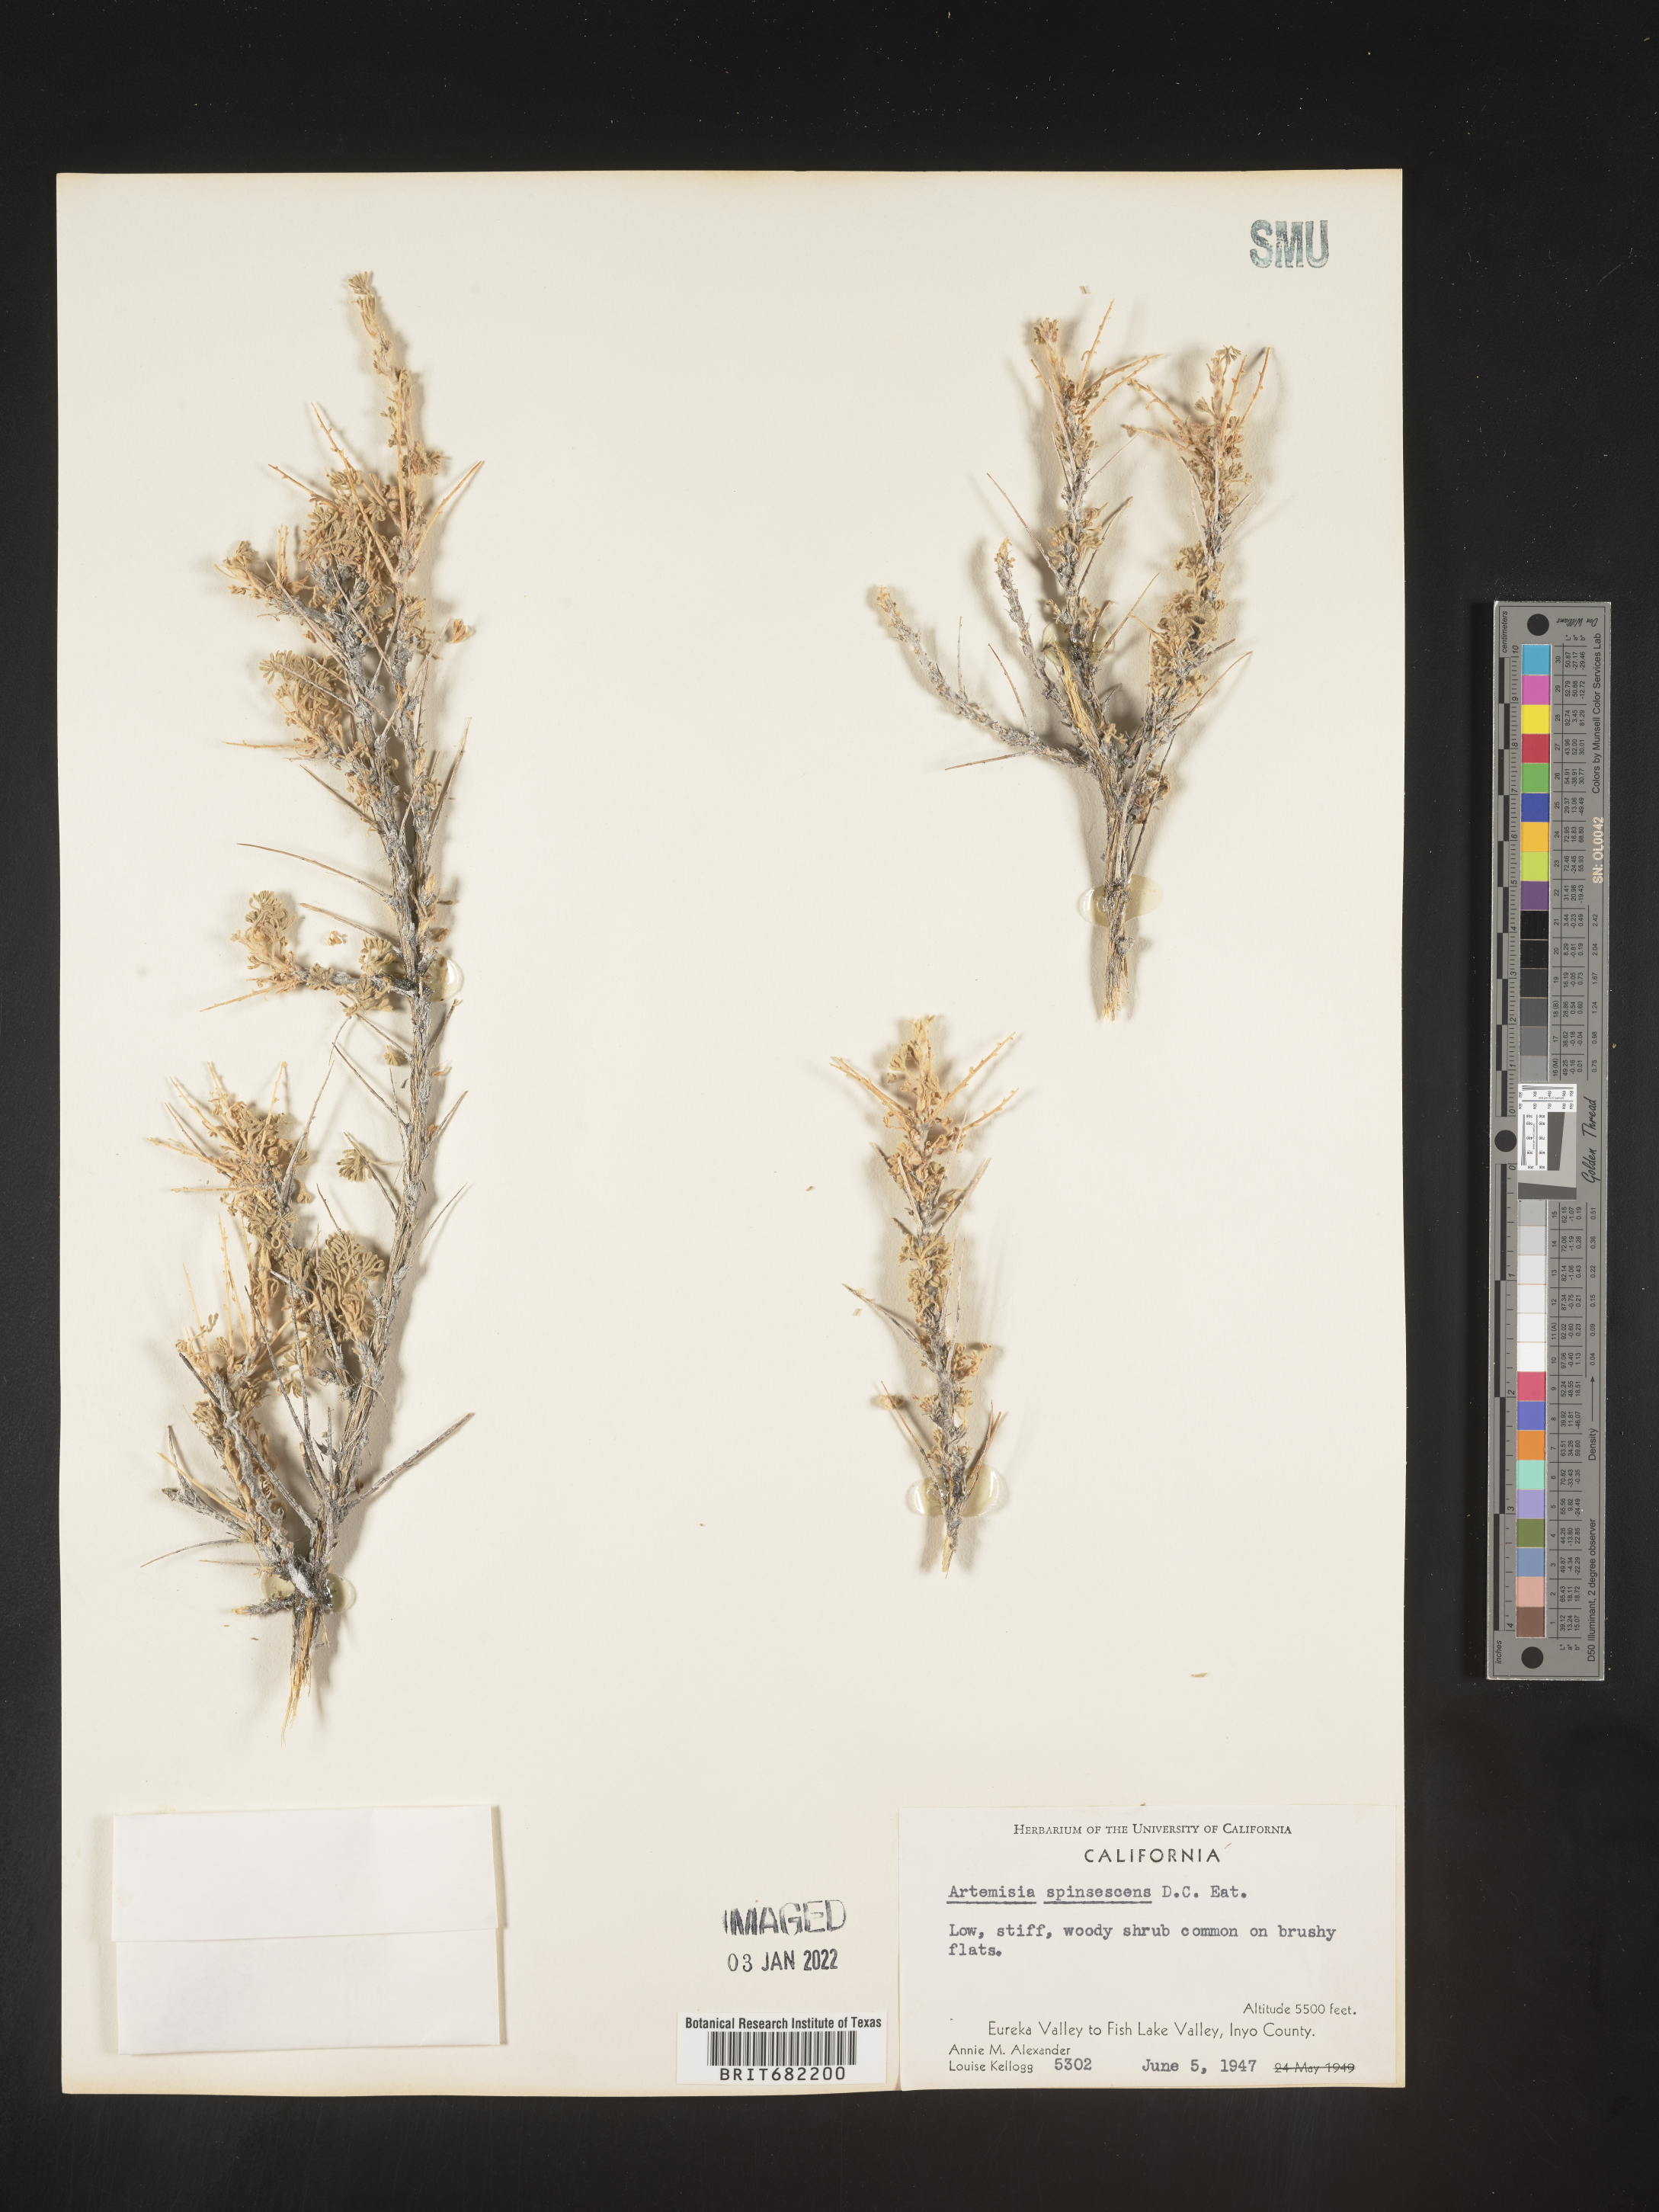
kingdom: Plantae
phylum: Tracheophyta
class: Magnoliopsida
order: Asterales
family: Asteraceae
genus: Artemisia
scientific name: Artemisia spinescens
